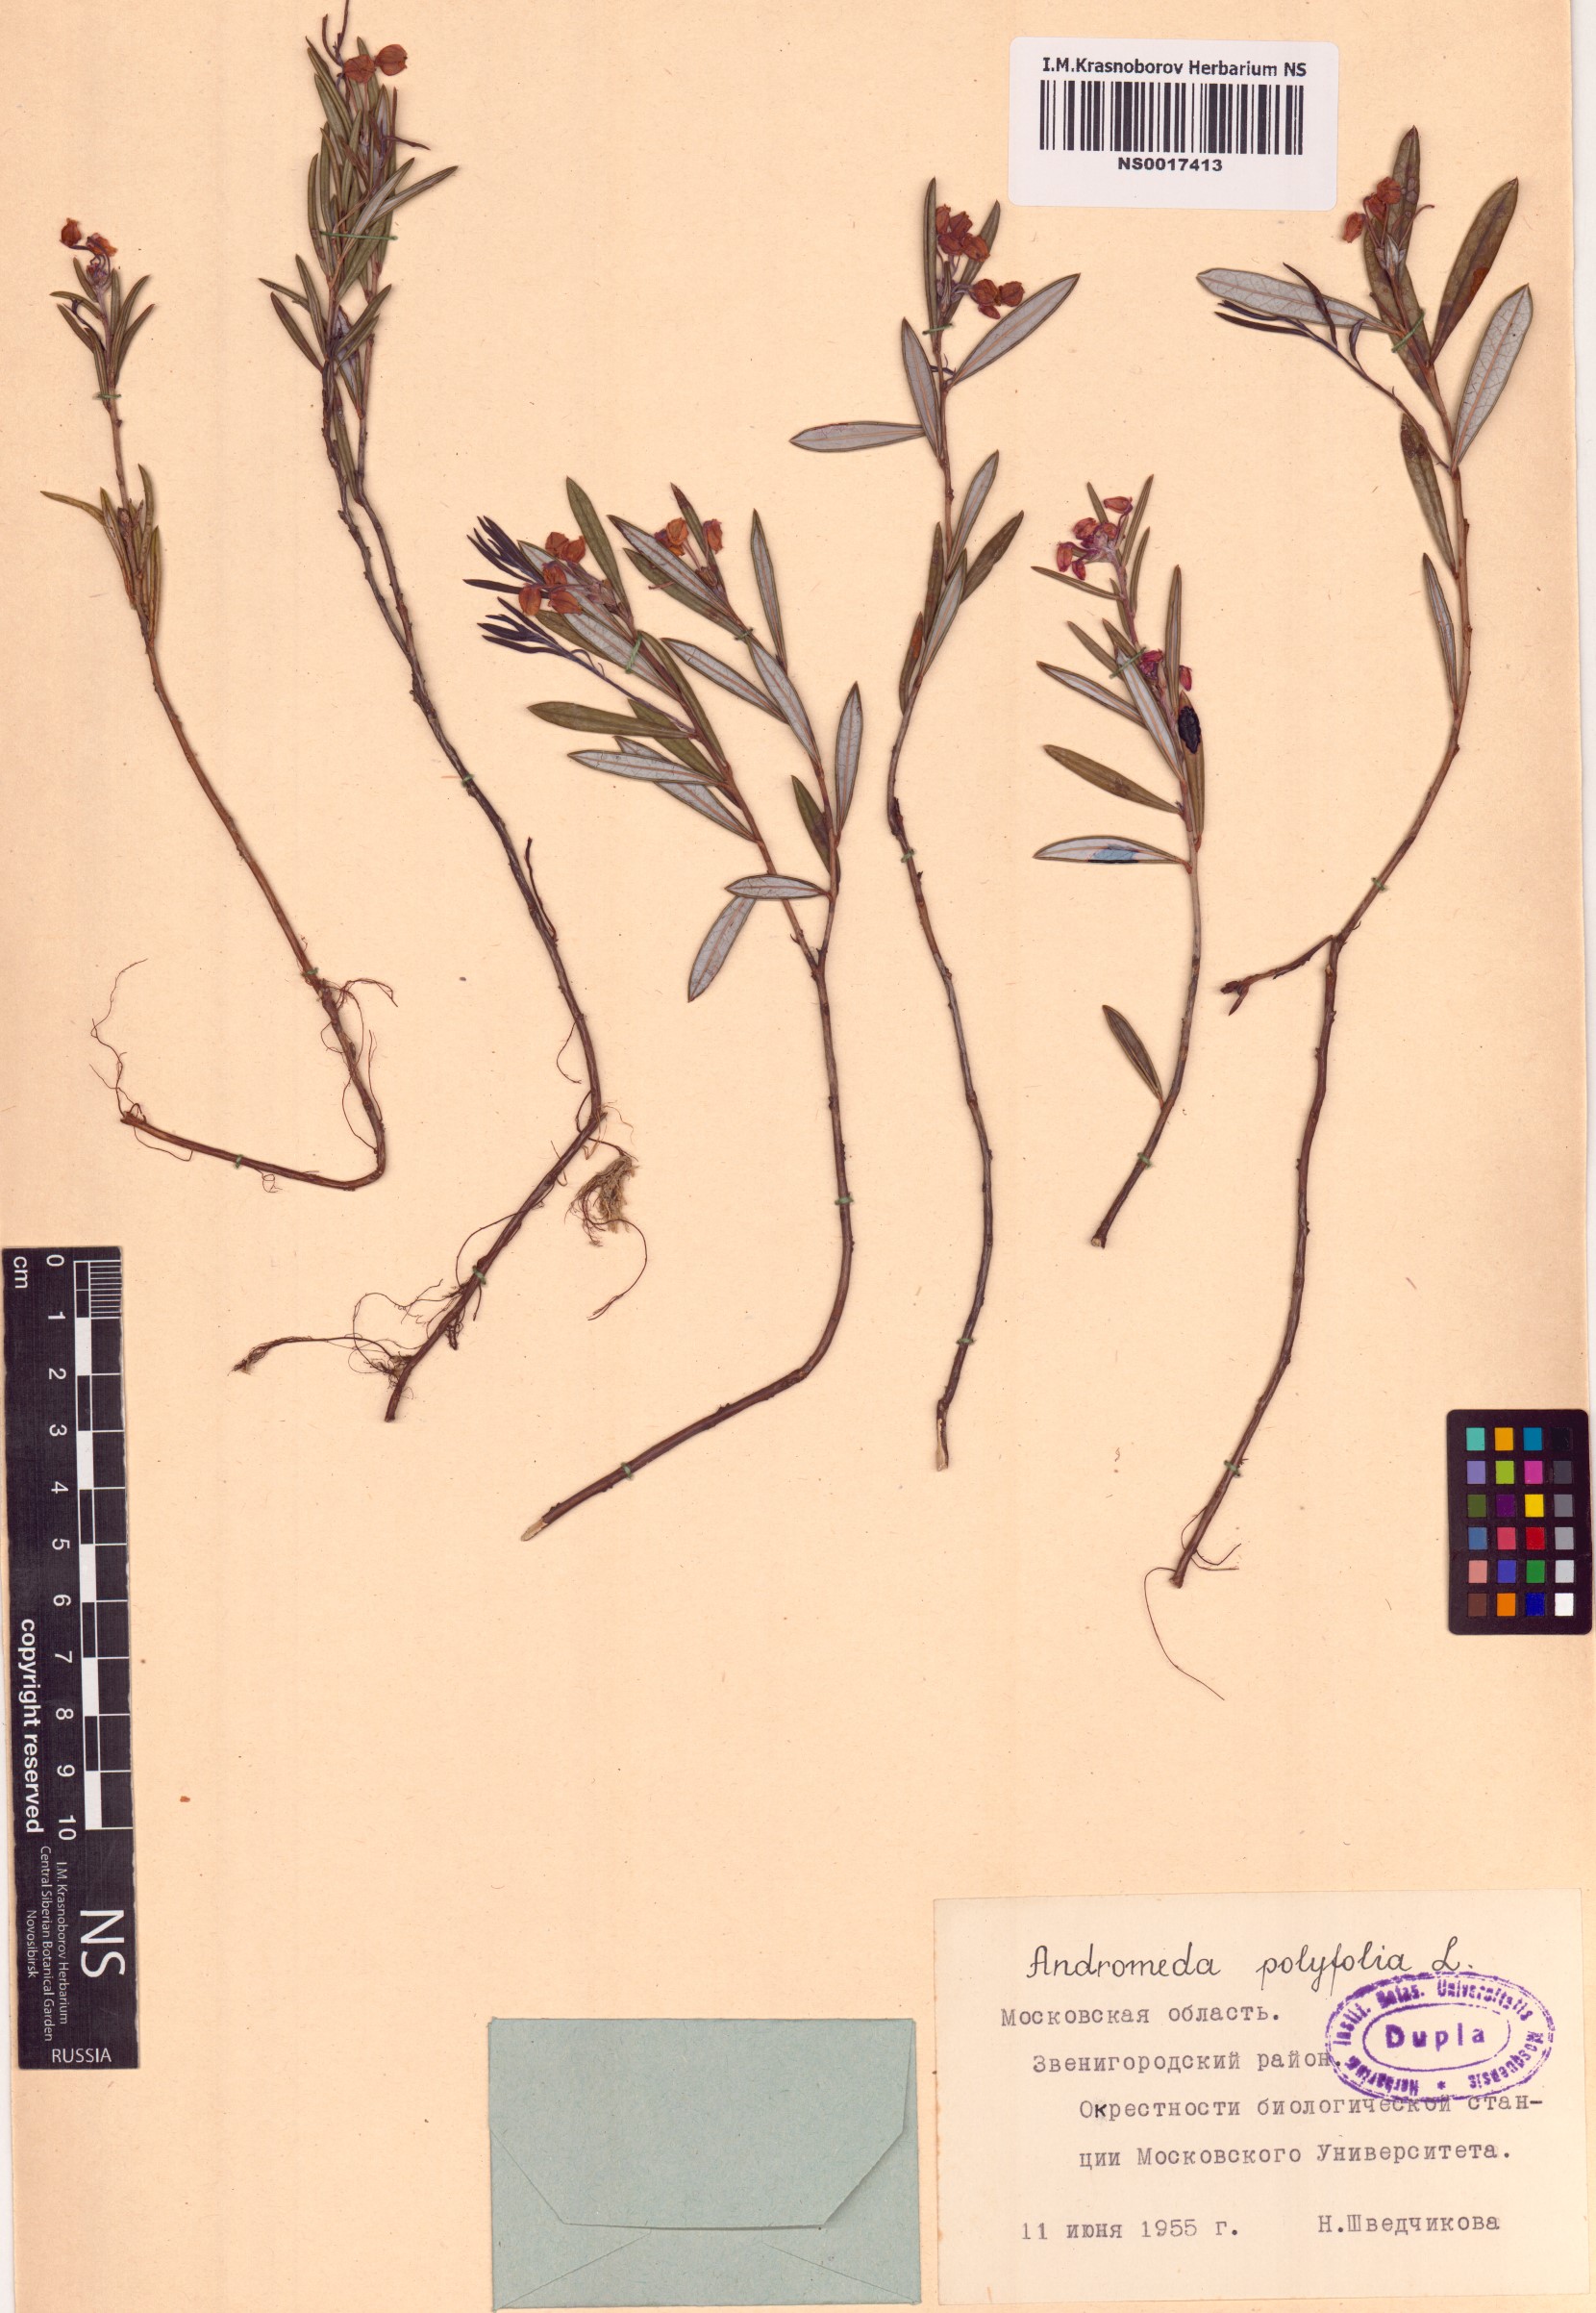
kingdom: Plantae
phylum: Tracheophyta
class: Magnoliopsida
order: Ericales
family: Ericaceae
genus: Andromeda
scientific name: Andromeda polifolia
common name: Bog-rosemary
